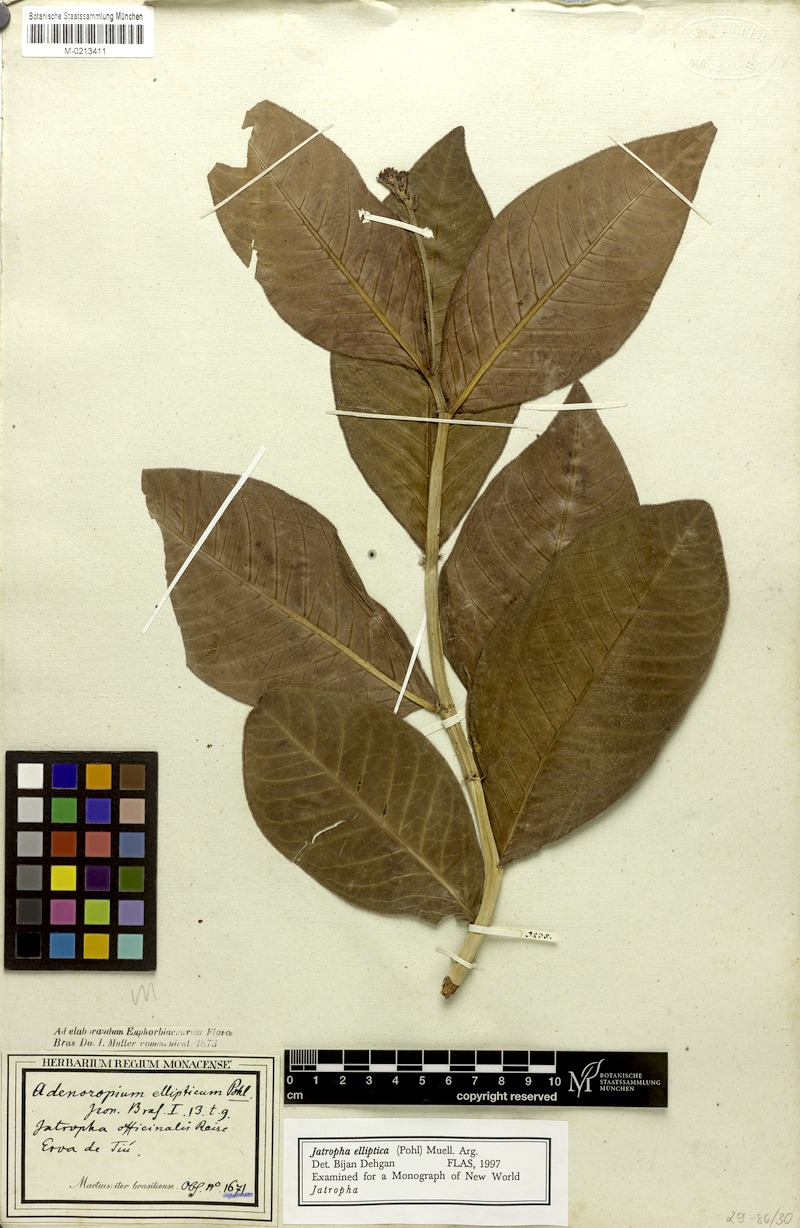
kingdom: Plantae
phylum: Tracheophyta
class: Magnoliopsida
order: Malpighiales
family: Euphorbiaceae
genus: Jatropha
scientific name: Jatropha elliptica
